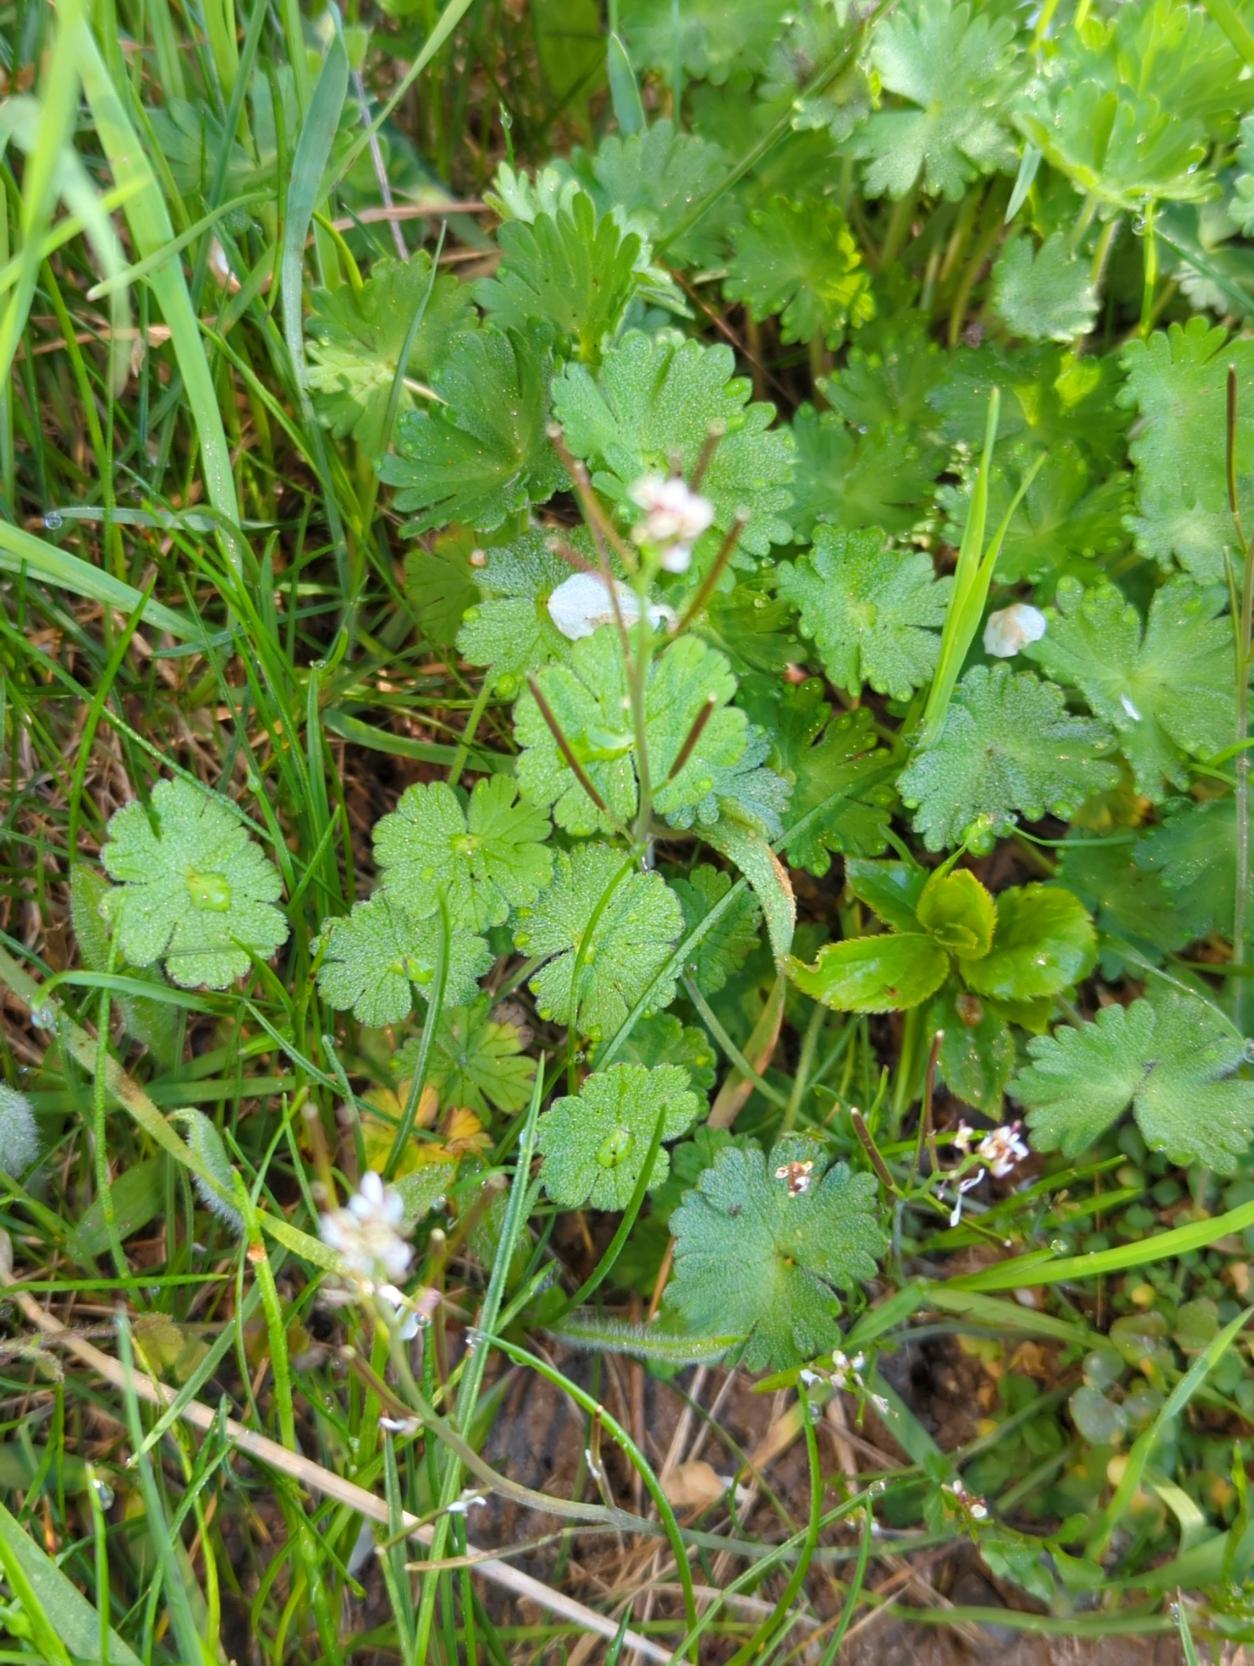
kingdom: Plantae
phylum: Tracheophyta
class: Magnoliopsida
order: Brassicales
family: Brassicaceae
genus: Cardamine
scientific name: Cardamine hirsuta
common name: Roset-springklap
